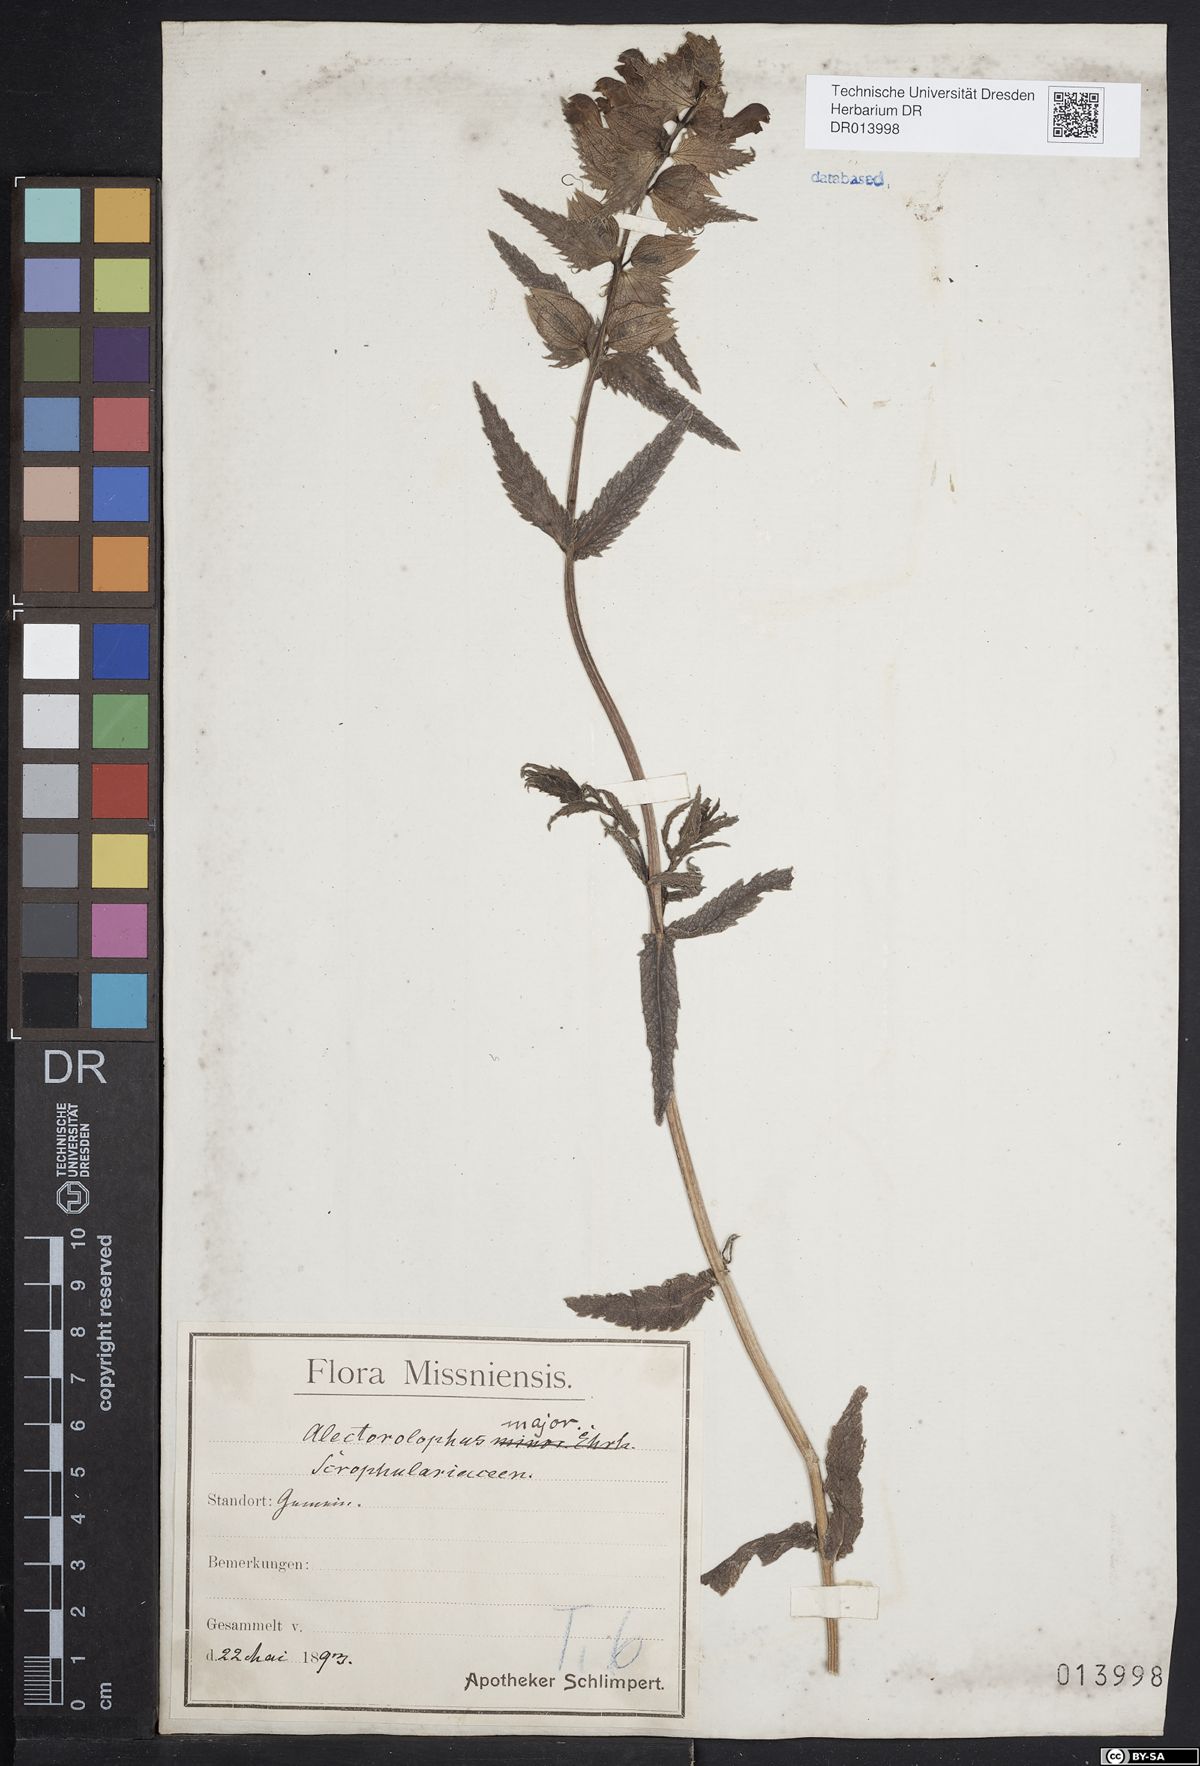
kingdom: Plantae
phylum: Tracheophyta
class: Magnoliopsida
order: Lamiales
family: Orobanchaceae
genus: Rhinanthus
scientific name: Rhinanthus serotinus
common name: Late-flowering yellow rattle
